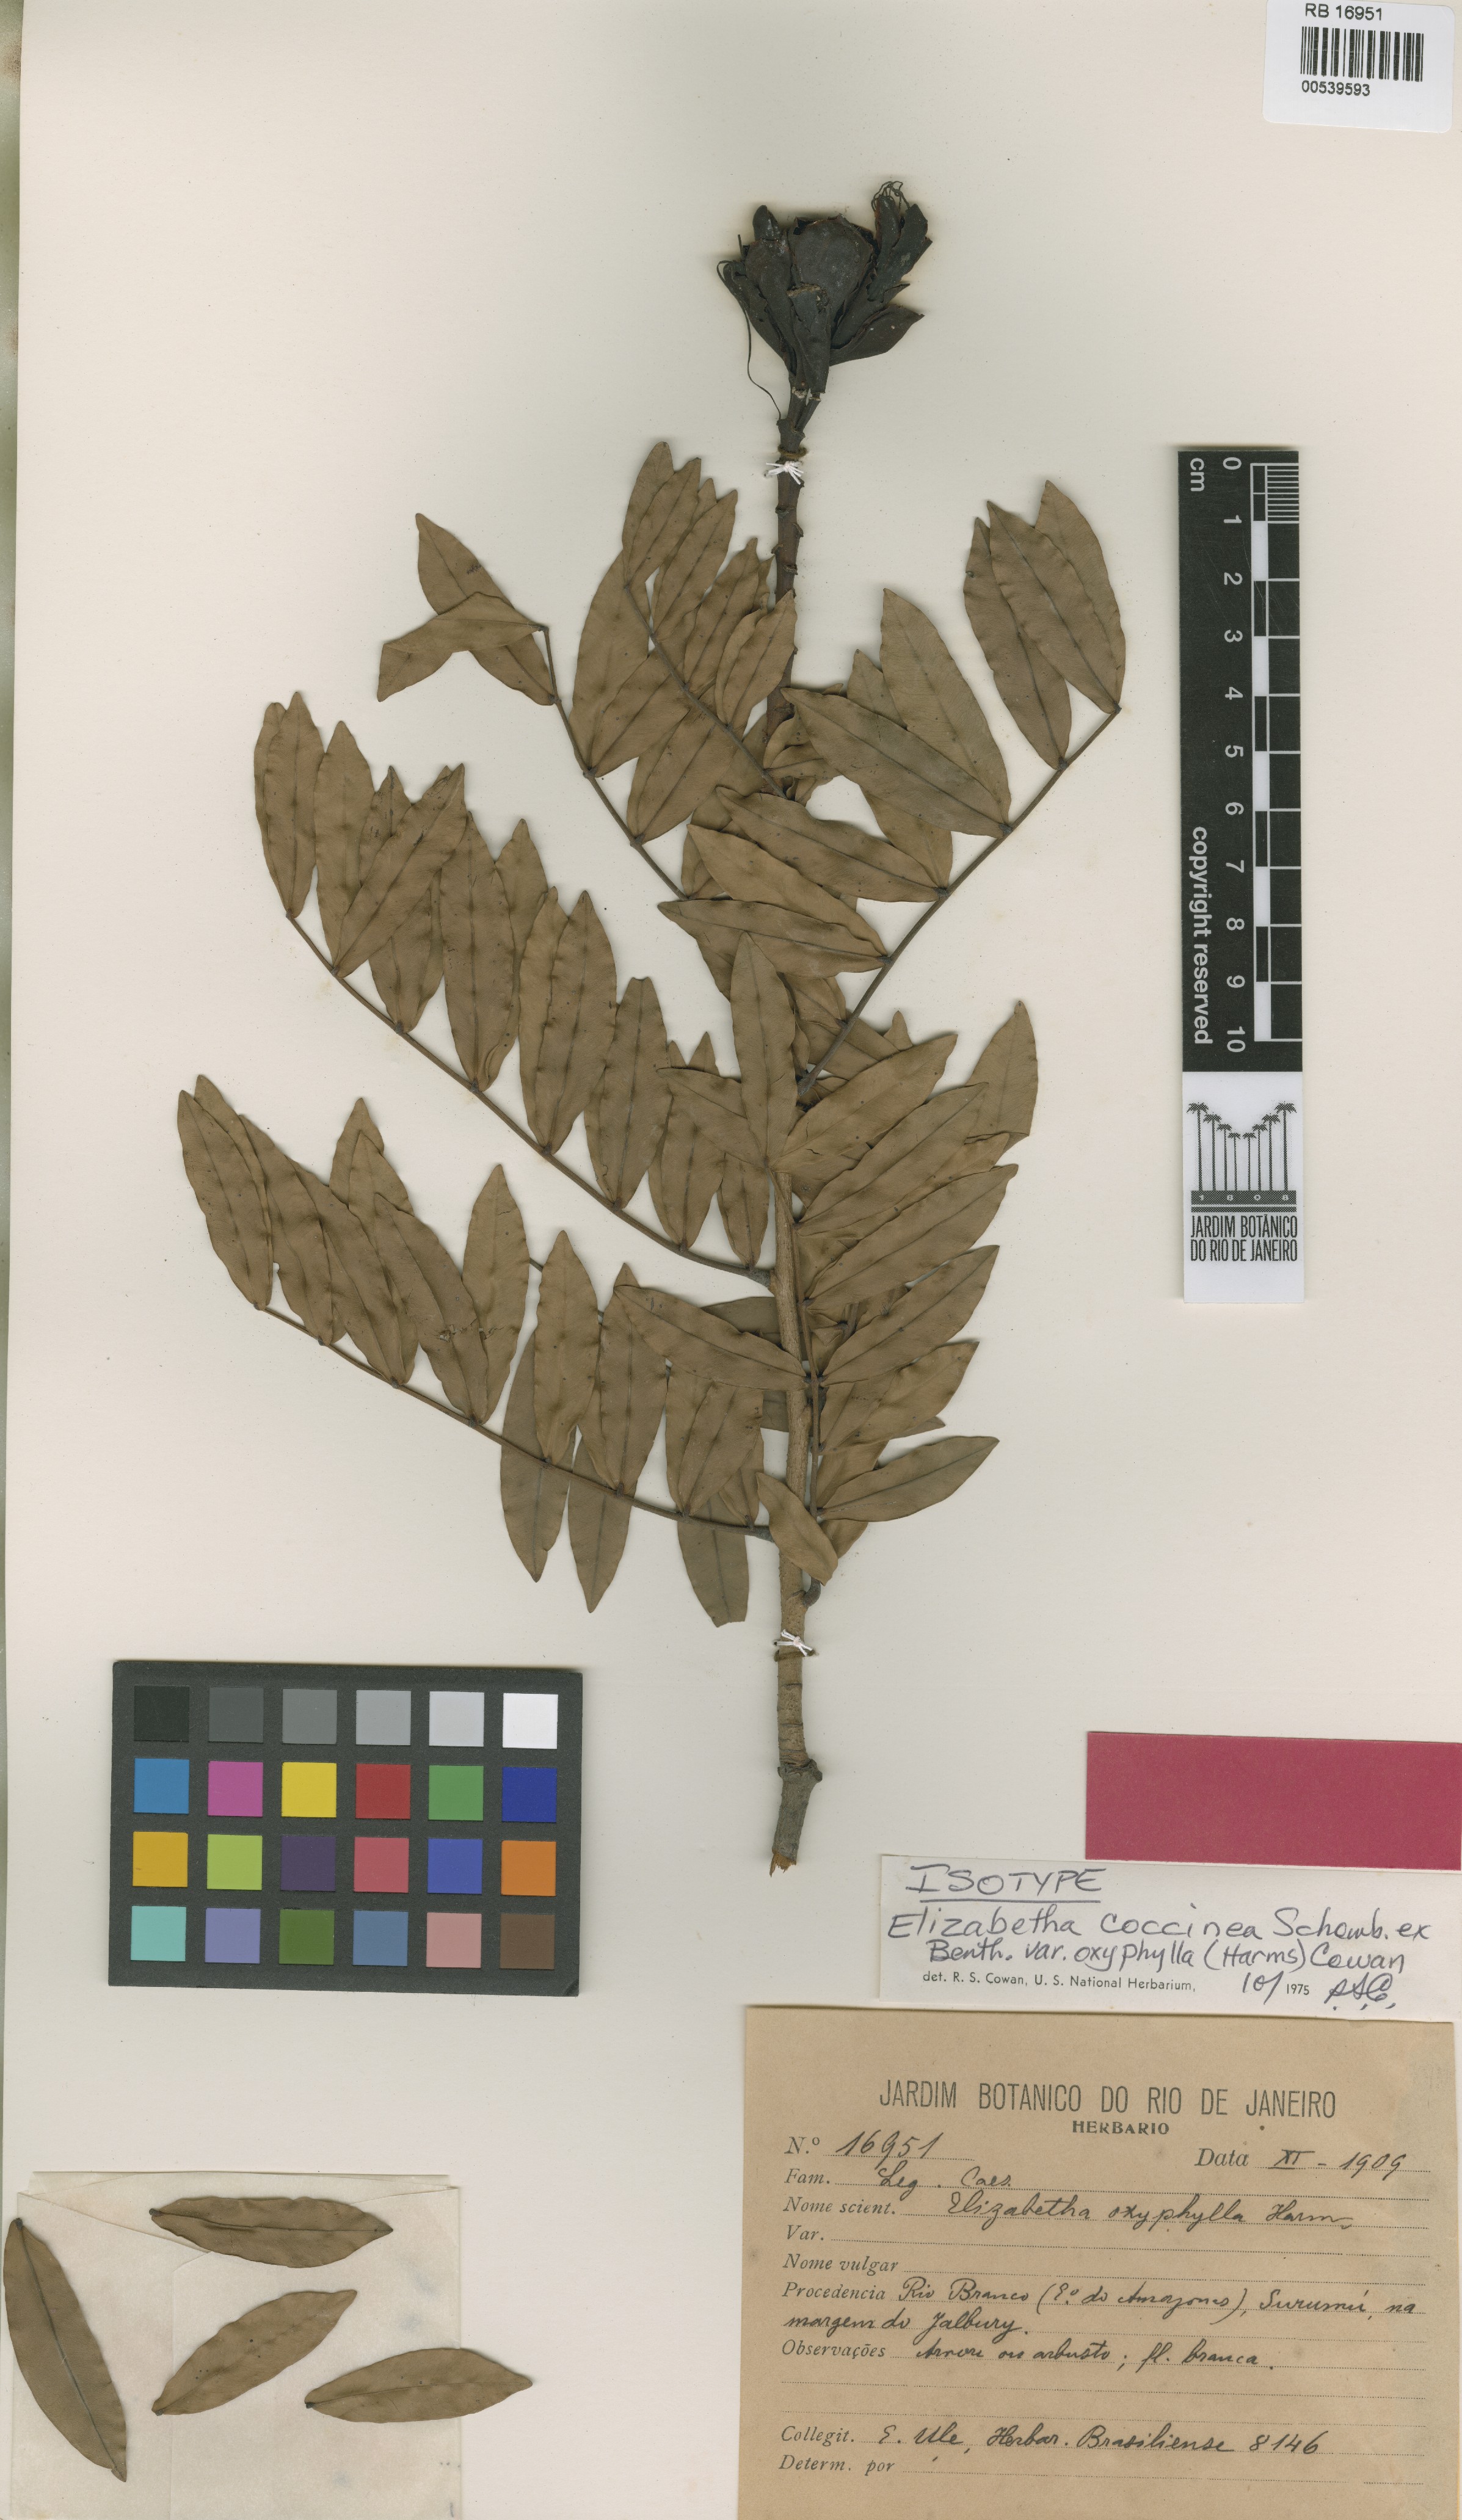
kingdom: Plantae
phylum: Tracheophyta
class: Magnoliopsida
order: Fabales
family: Fabaceae
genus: Paloue
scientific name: Paloue coccinea
